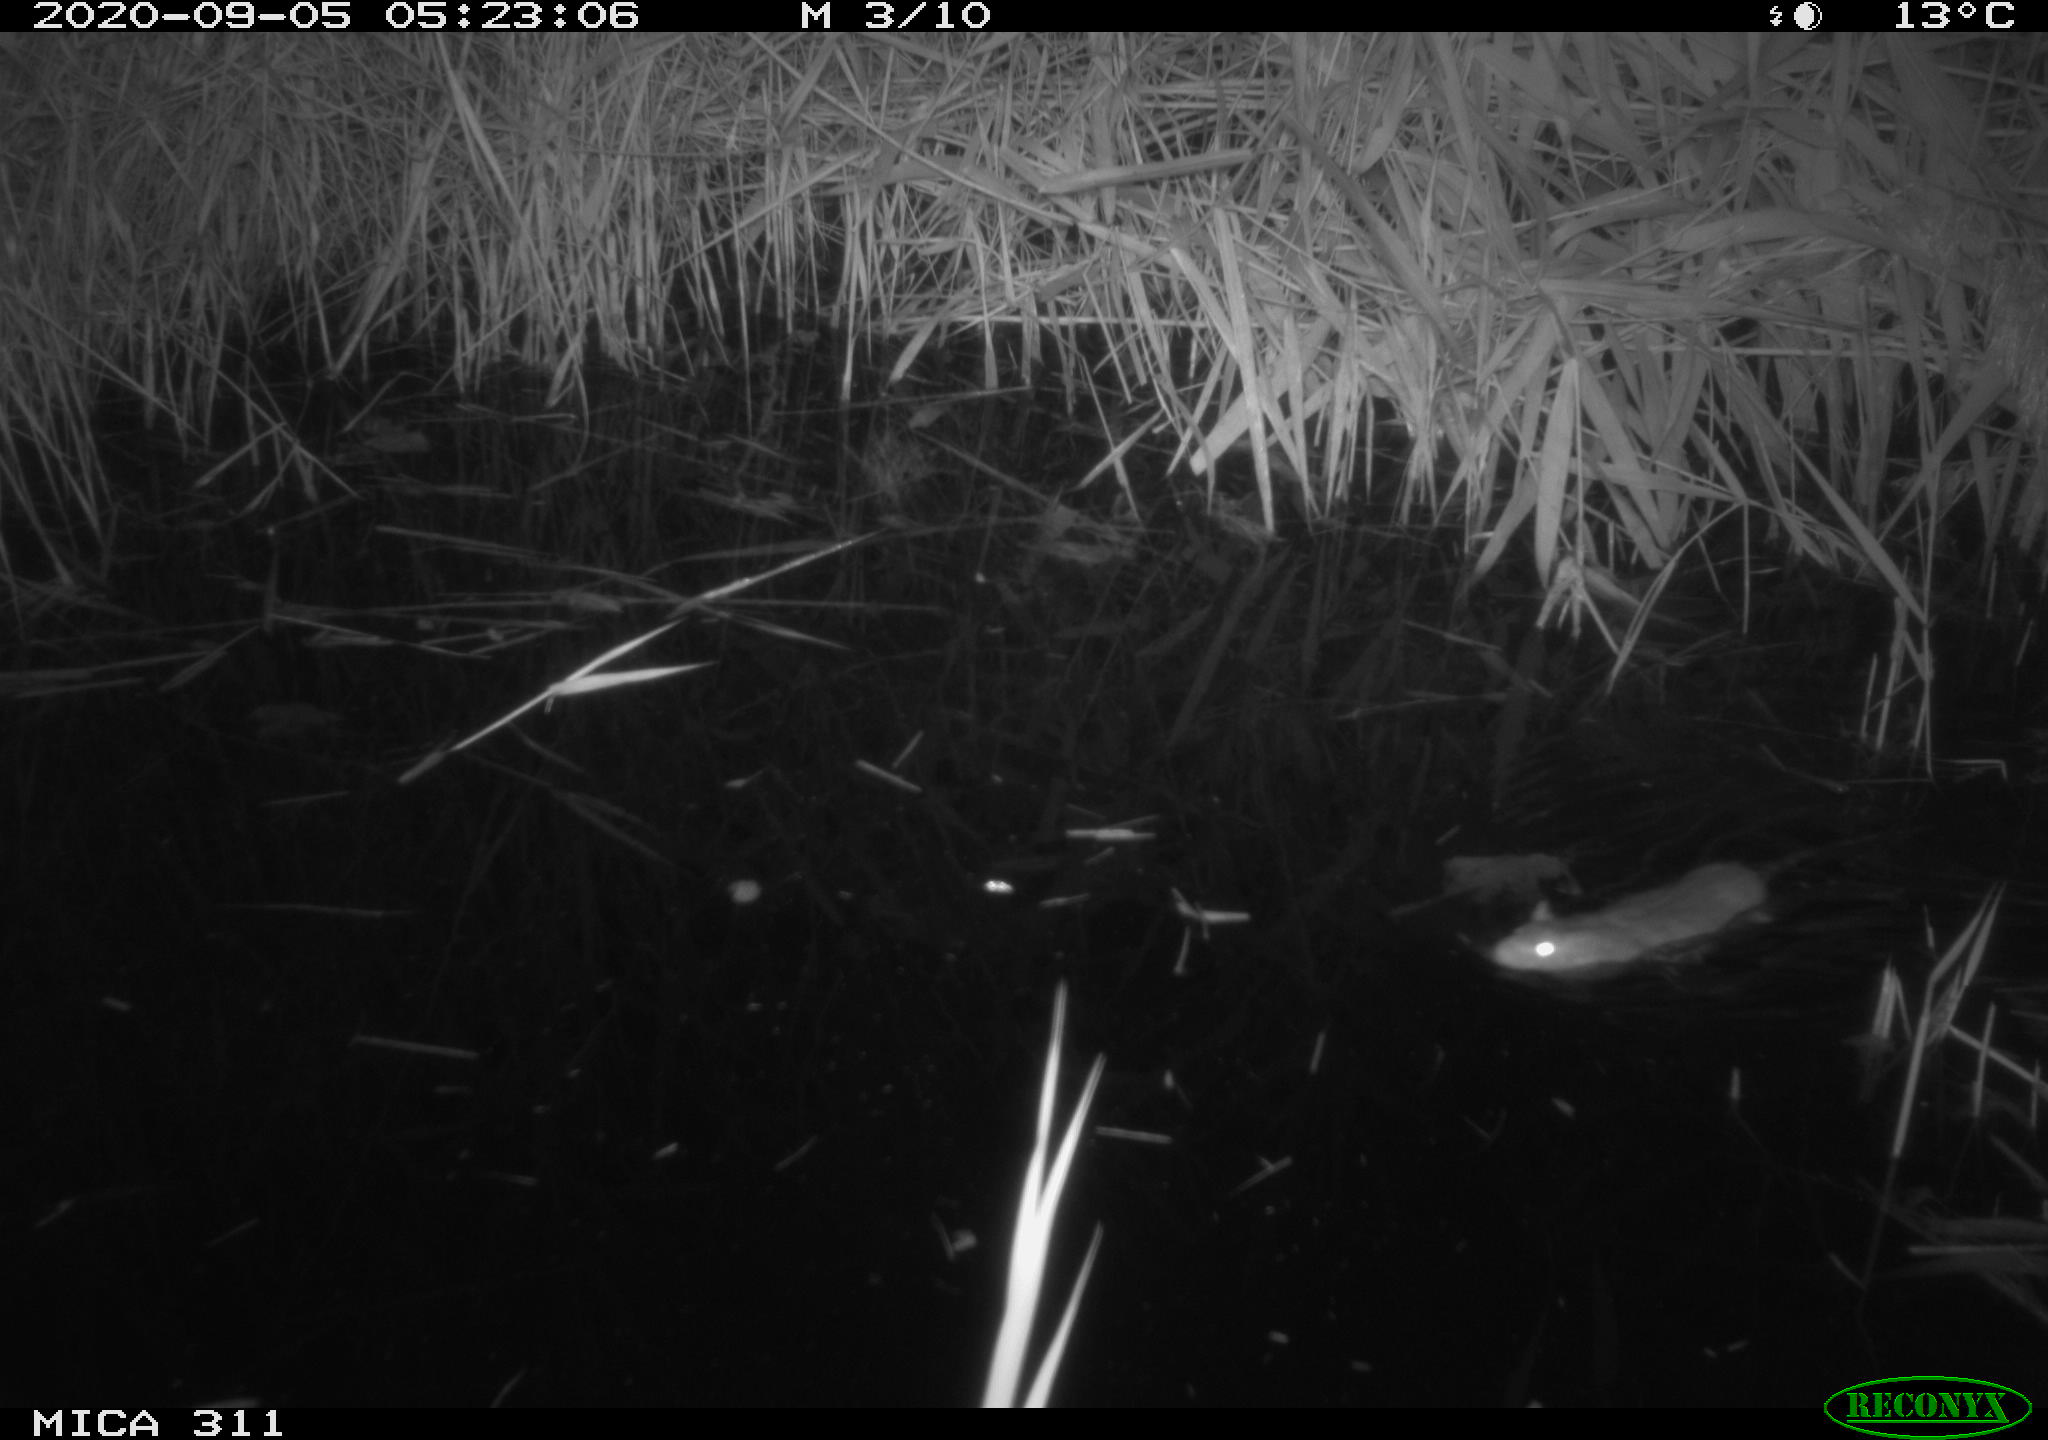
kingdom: Animalia
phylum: Chordata
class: Mammalia
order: Rodentia
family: Muridae
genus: Rattus
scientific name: Rattus norvegicus
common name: Brown rat
